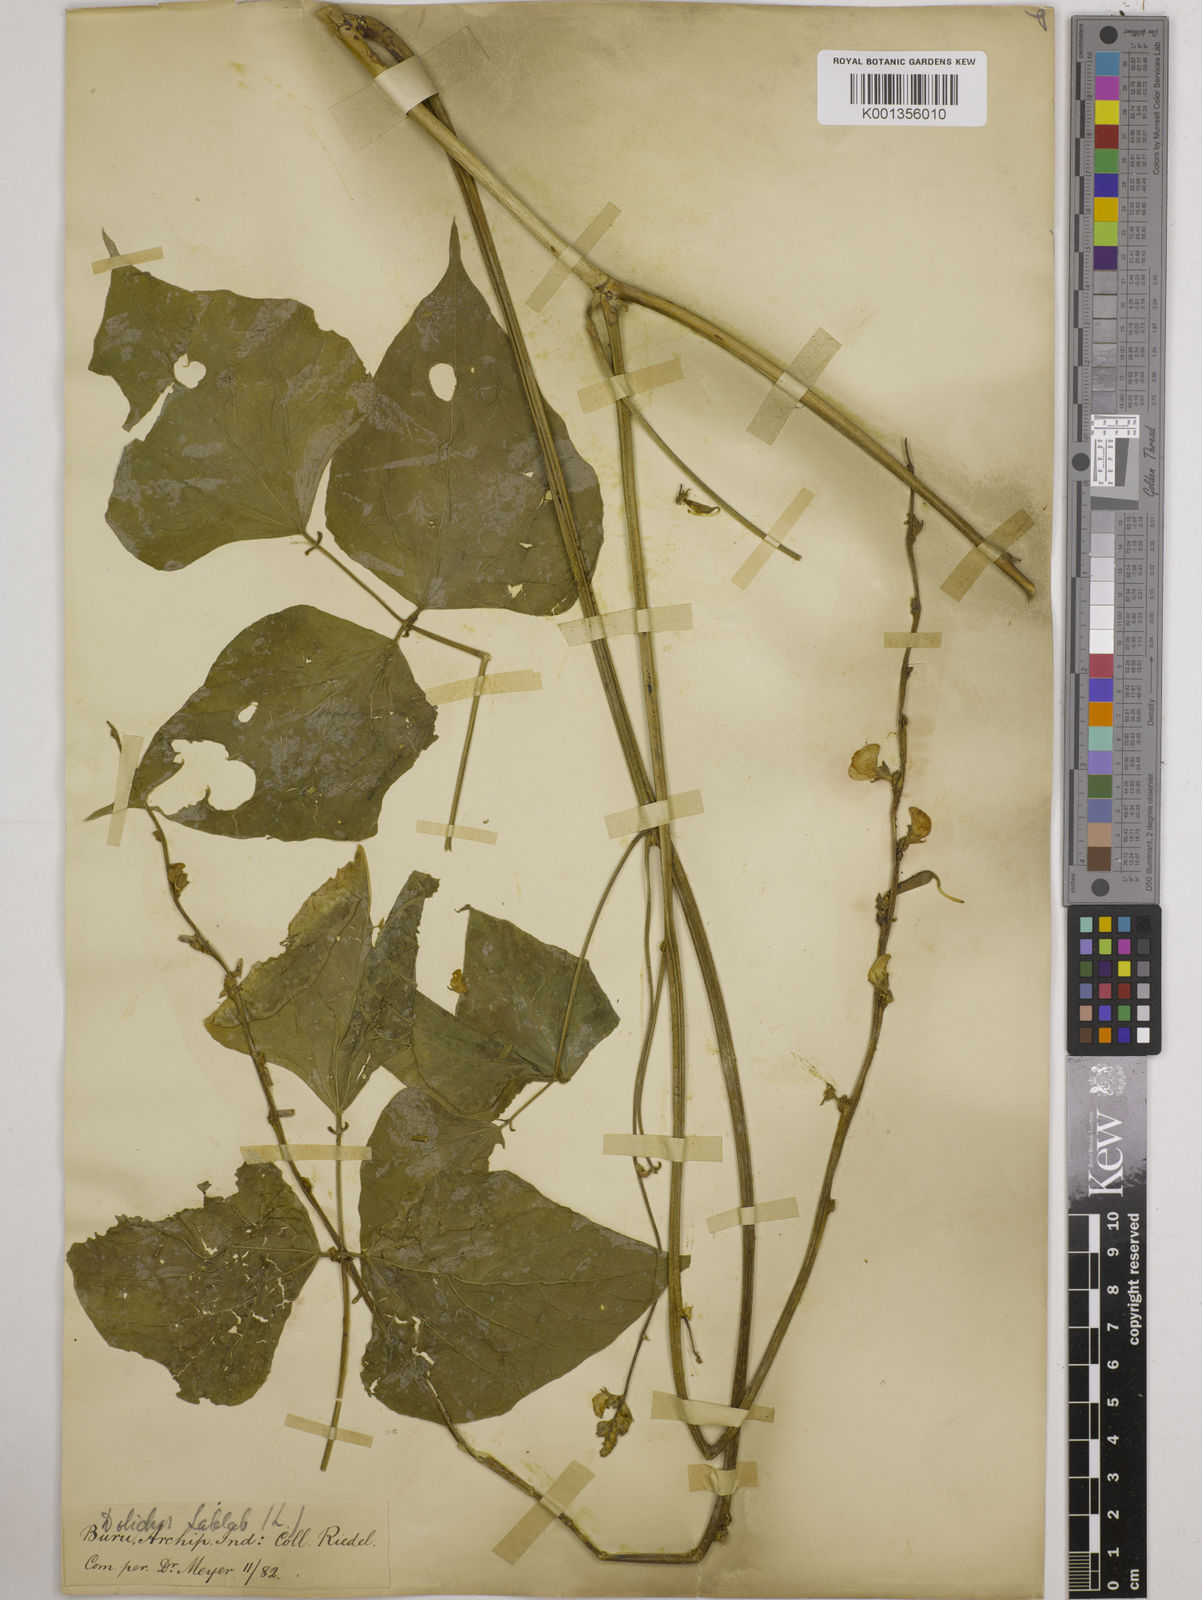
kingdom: Plantae
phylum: Tracheophyta
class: Magnoliopsida
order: Fabales
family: Fabaceae
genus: Lablab
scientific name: Lablab purpureus
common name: Lablab-bean
